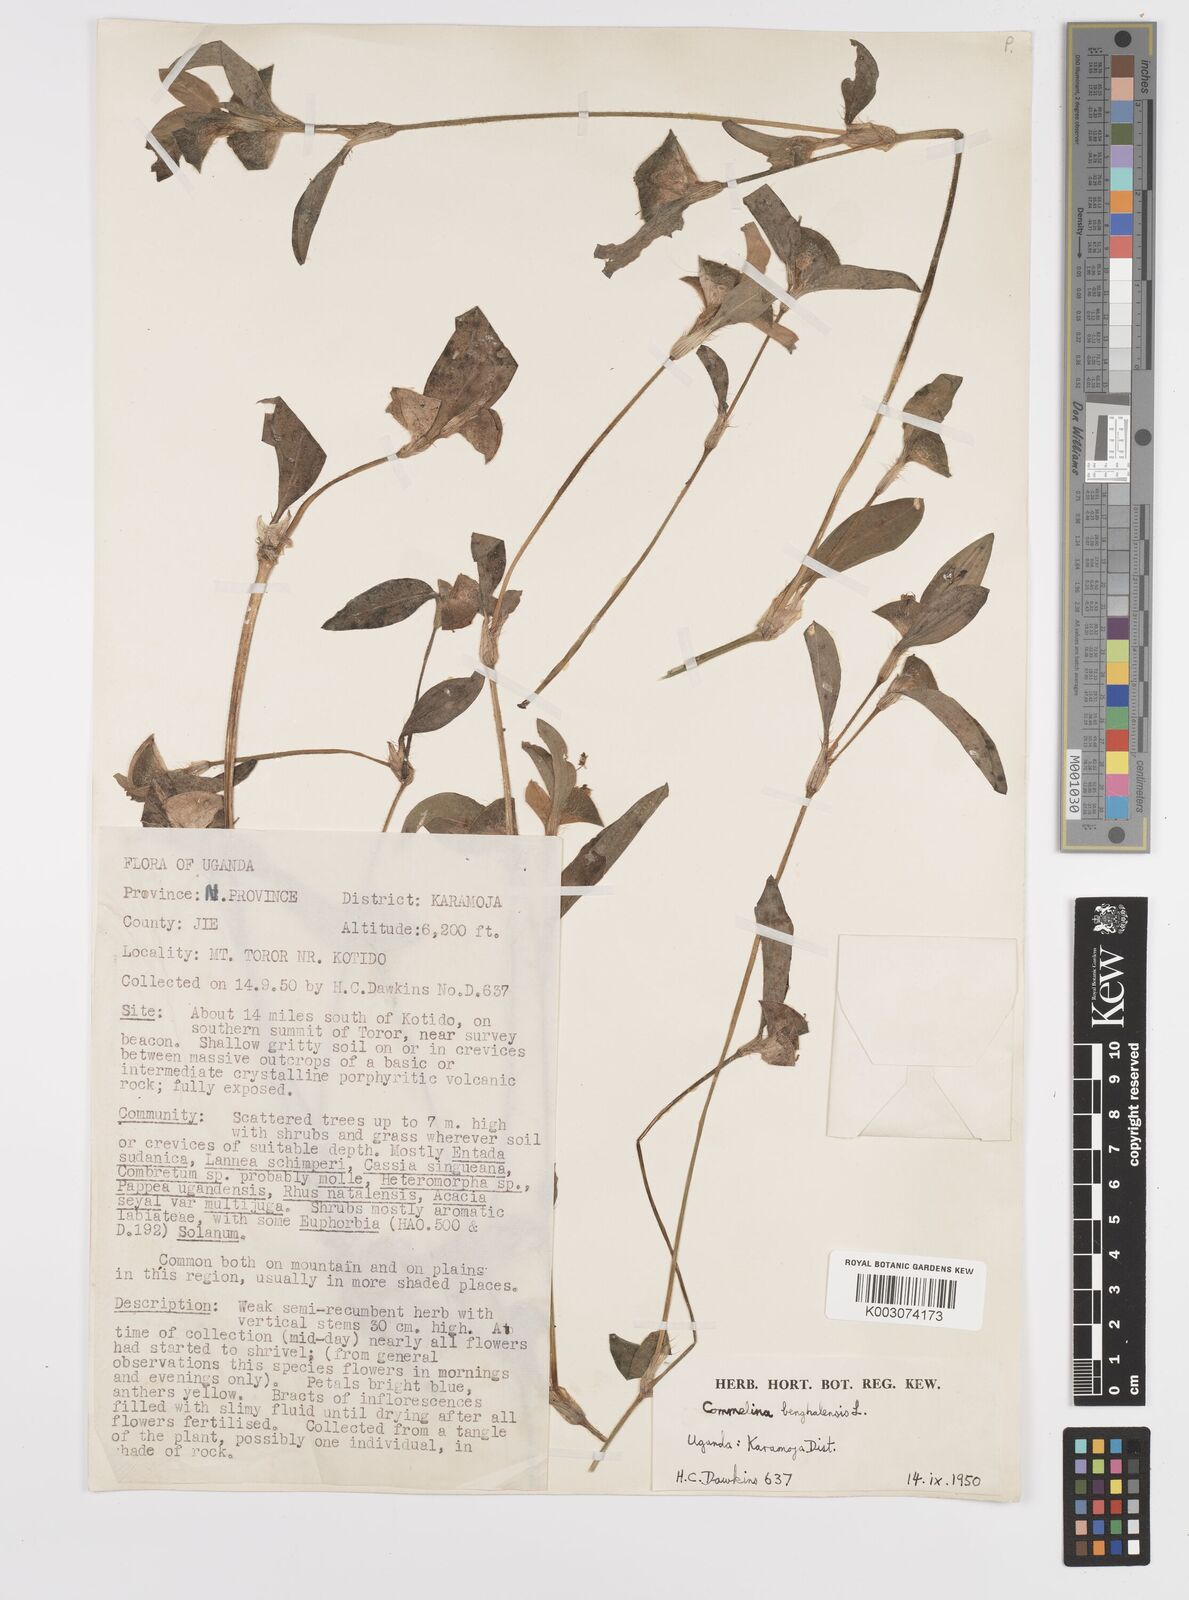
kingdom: Plantae
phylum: Tracheophyta
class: Liliopsida
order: Commelinales
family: Commelinaceae
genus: Commelina
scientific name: Commelina benghalensis
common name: Jio
